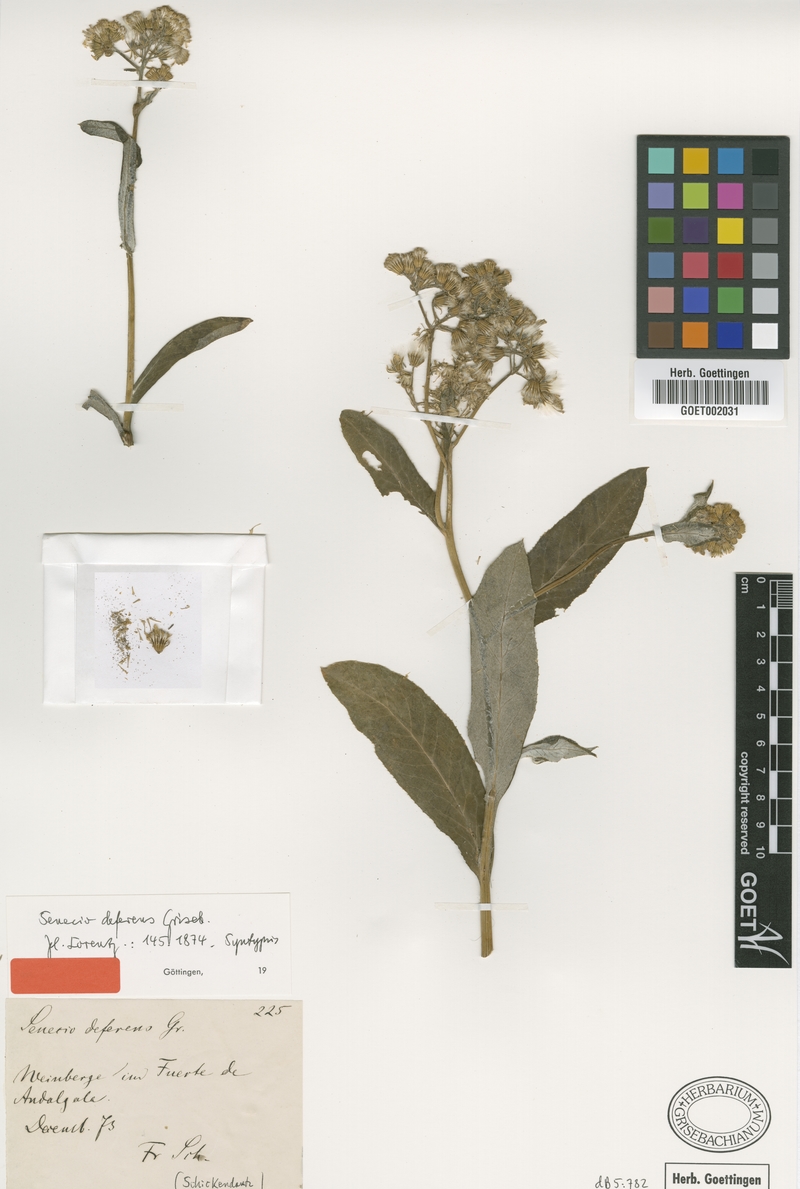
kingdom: Plantae
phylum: Tracheophyta
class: Magnoliopsida
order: Asterales
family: Asteraceae
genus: Senecio
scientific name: Senecio deferens
